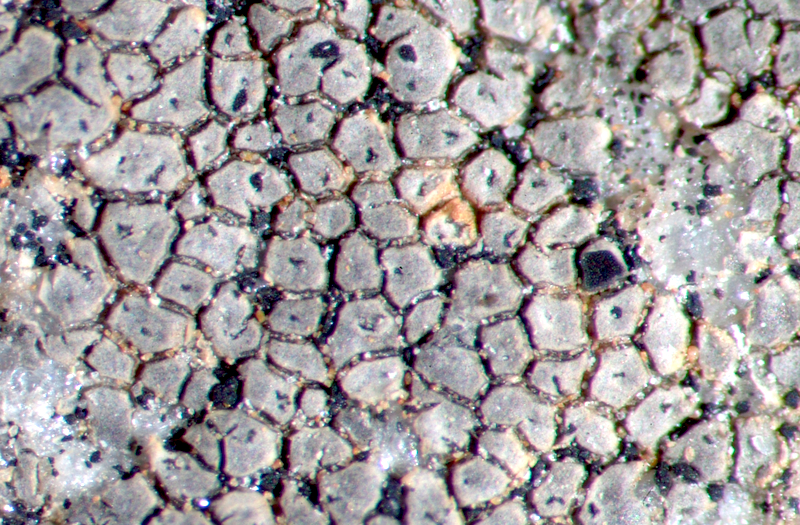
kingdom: Fungi
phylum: Ascomycota
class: Lecanoromycetes
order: Acarosporales
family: Acarosporaceae
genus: Acarospora
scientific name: Acarospora
